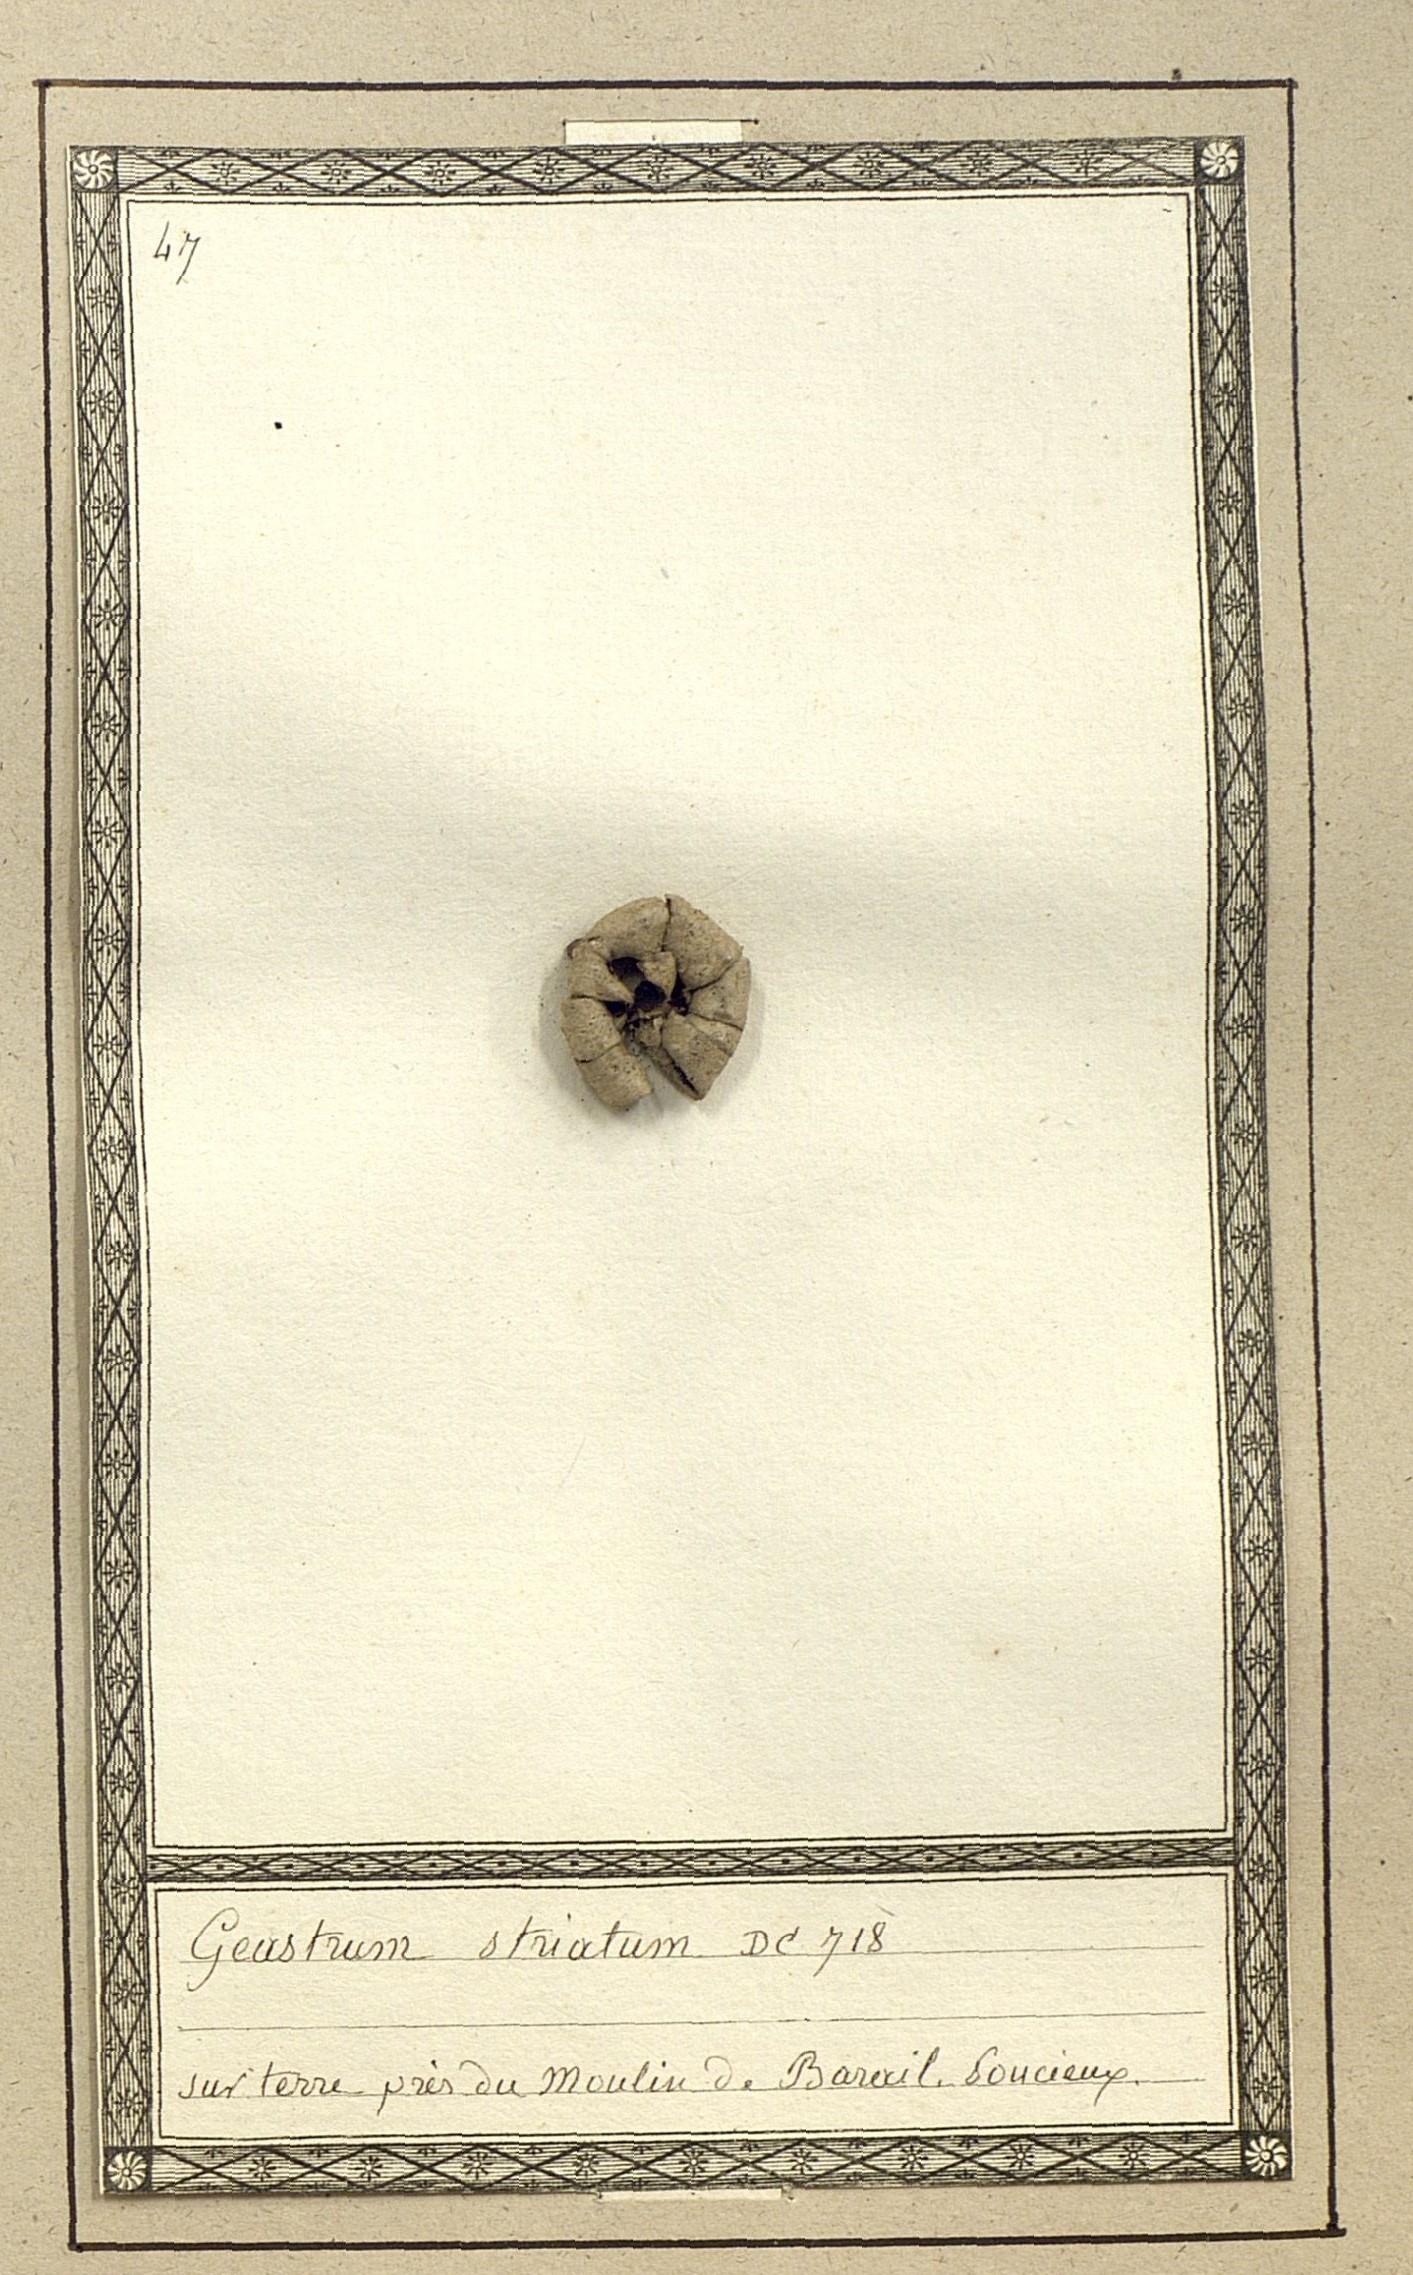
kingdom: Fungi
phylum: Basidiomycota
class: Agaricomycetes
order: Geastrales
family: Geastraceae
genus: Geastrum
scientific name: Geastrum striatum
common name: Striate earthstar
